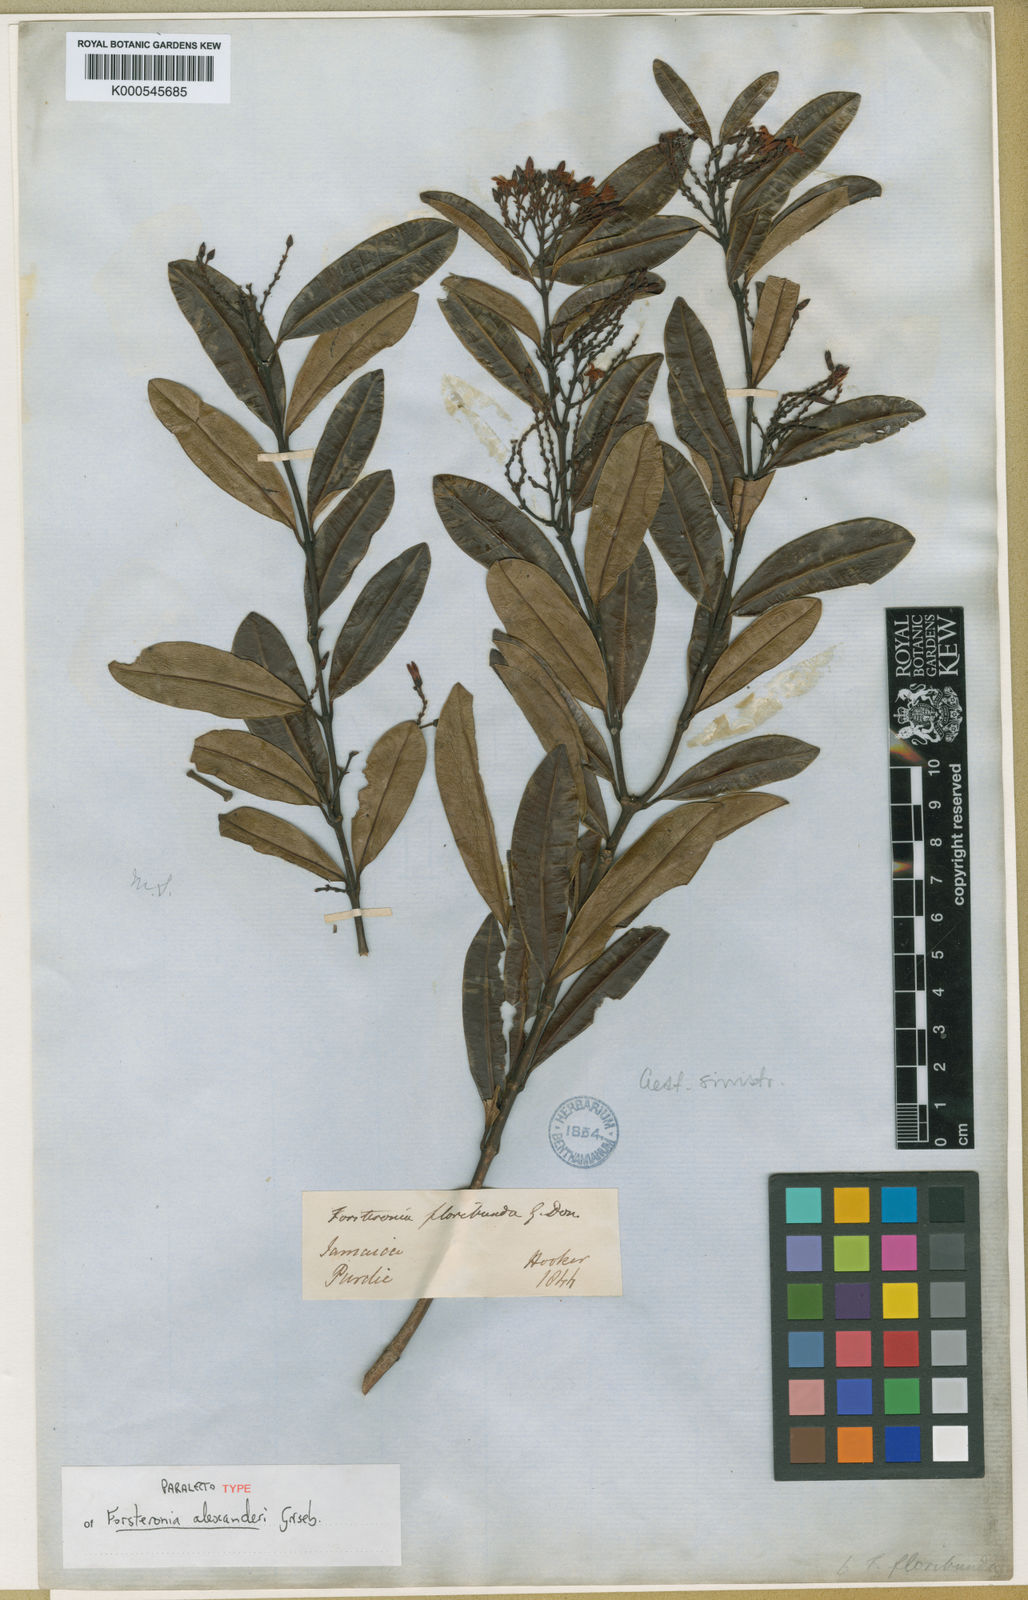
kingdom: Plantae
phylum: Tracheophyta
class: Magnoliopsida
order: Gentianales
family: Apocynaceae
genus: Pinochia
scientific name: Pinochia floribunda
